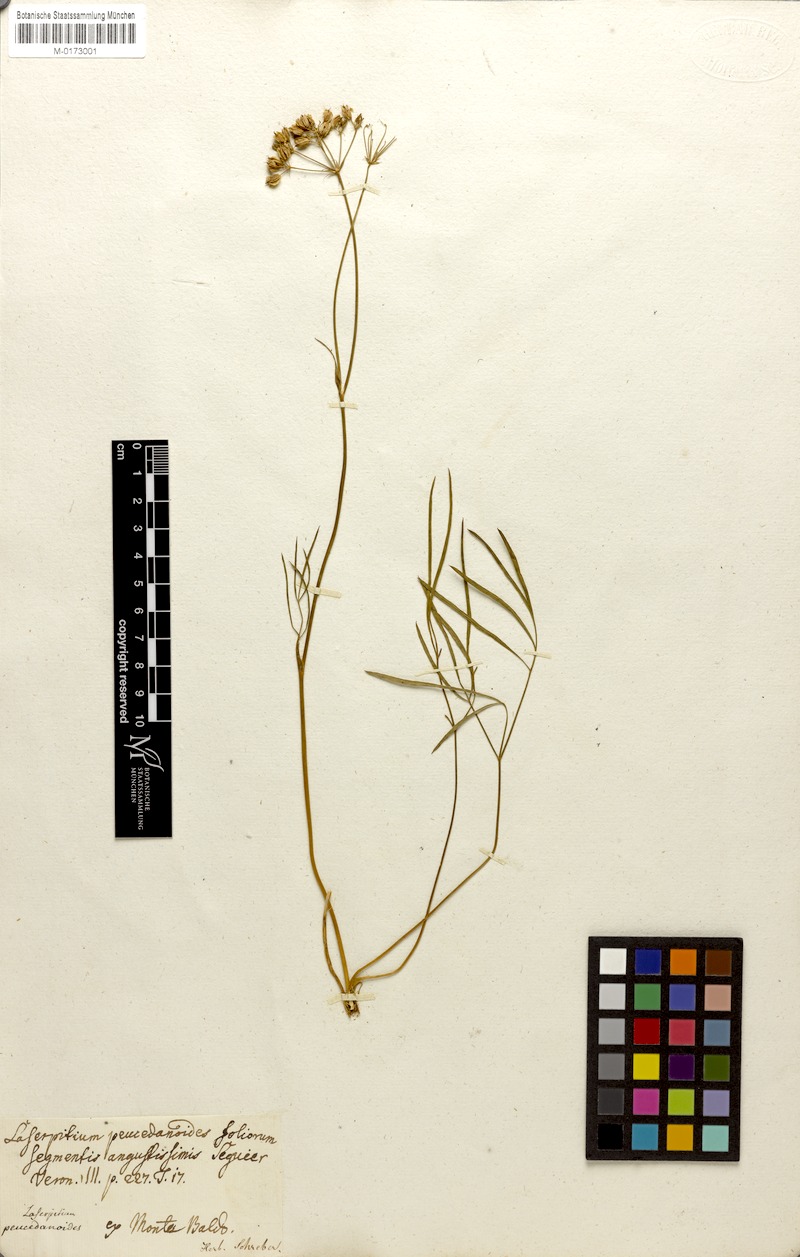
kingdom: Plantae
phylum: Tracheophyta
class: Magnoliopsida
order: Apiales
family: Apiaceae
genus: Laserpitium
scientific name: Laserpitium peucedanoides
